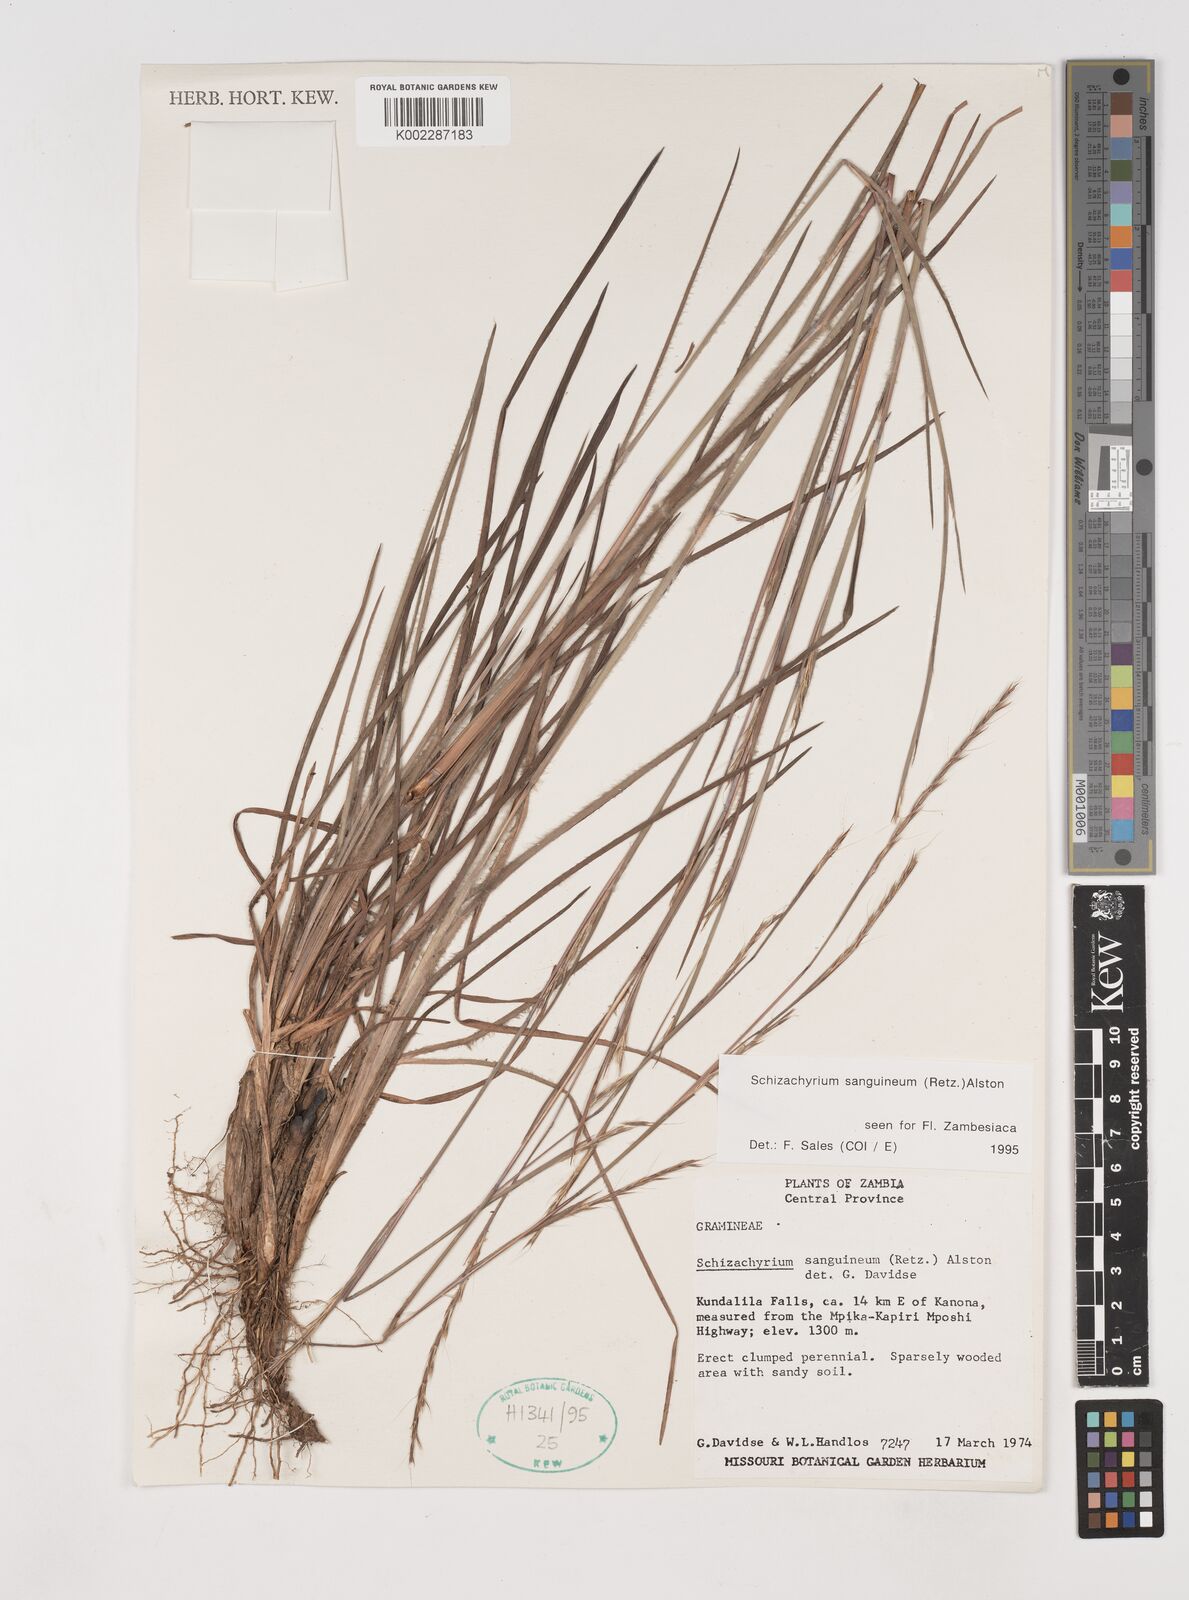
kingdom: Plantae
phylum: Tracheophyta
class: Liliopsida
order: Poales
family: Poaceae
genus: Schizachyrium
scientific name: Schizachyrium sanguineum
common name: Crimson bluestem
